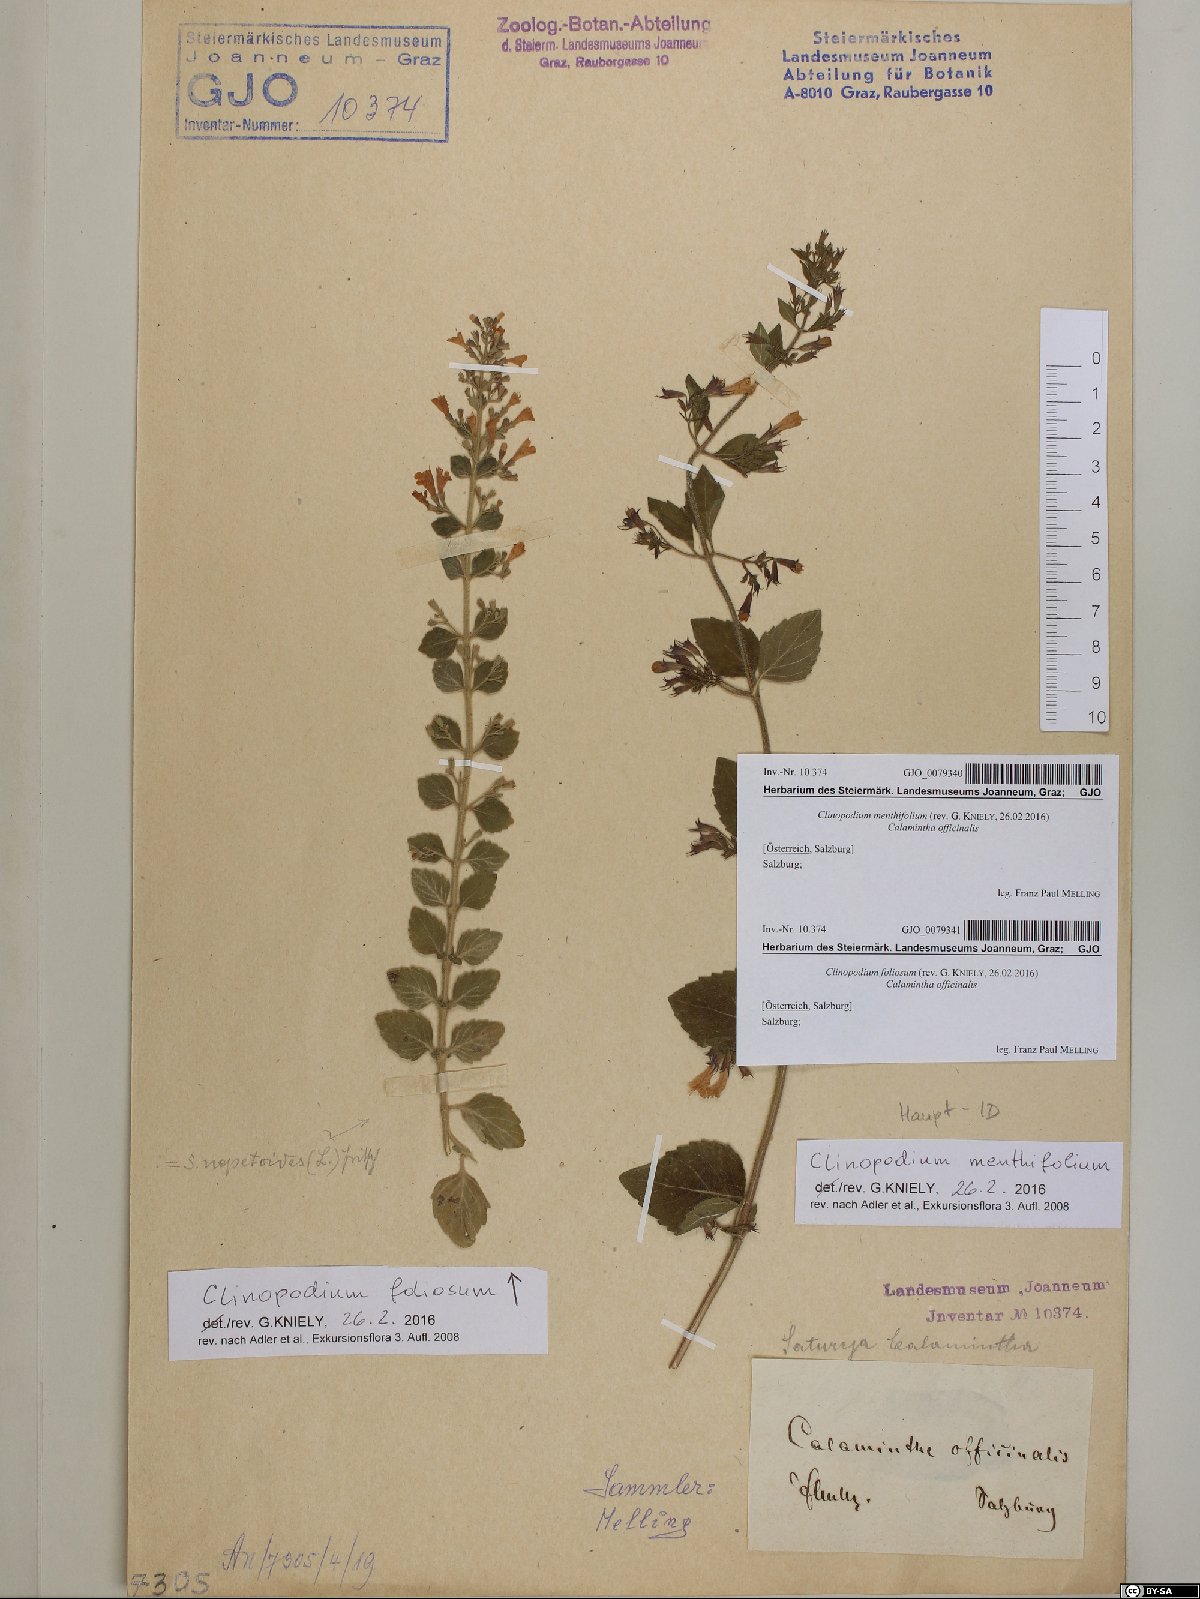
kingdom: Plantae
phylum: Tracheophyta
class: Magnoliopsida
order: Lamiales
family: Lamiaceae
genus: Clinopodium
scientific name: Clinopodium menthifolium
